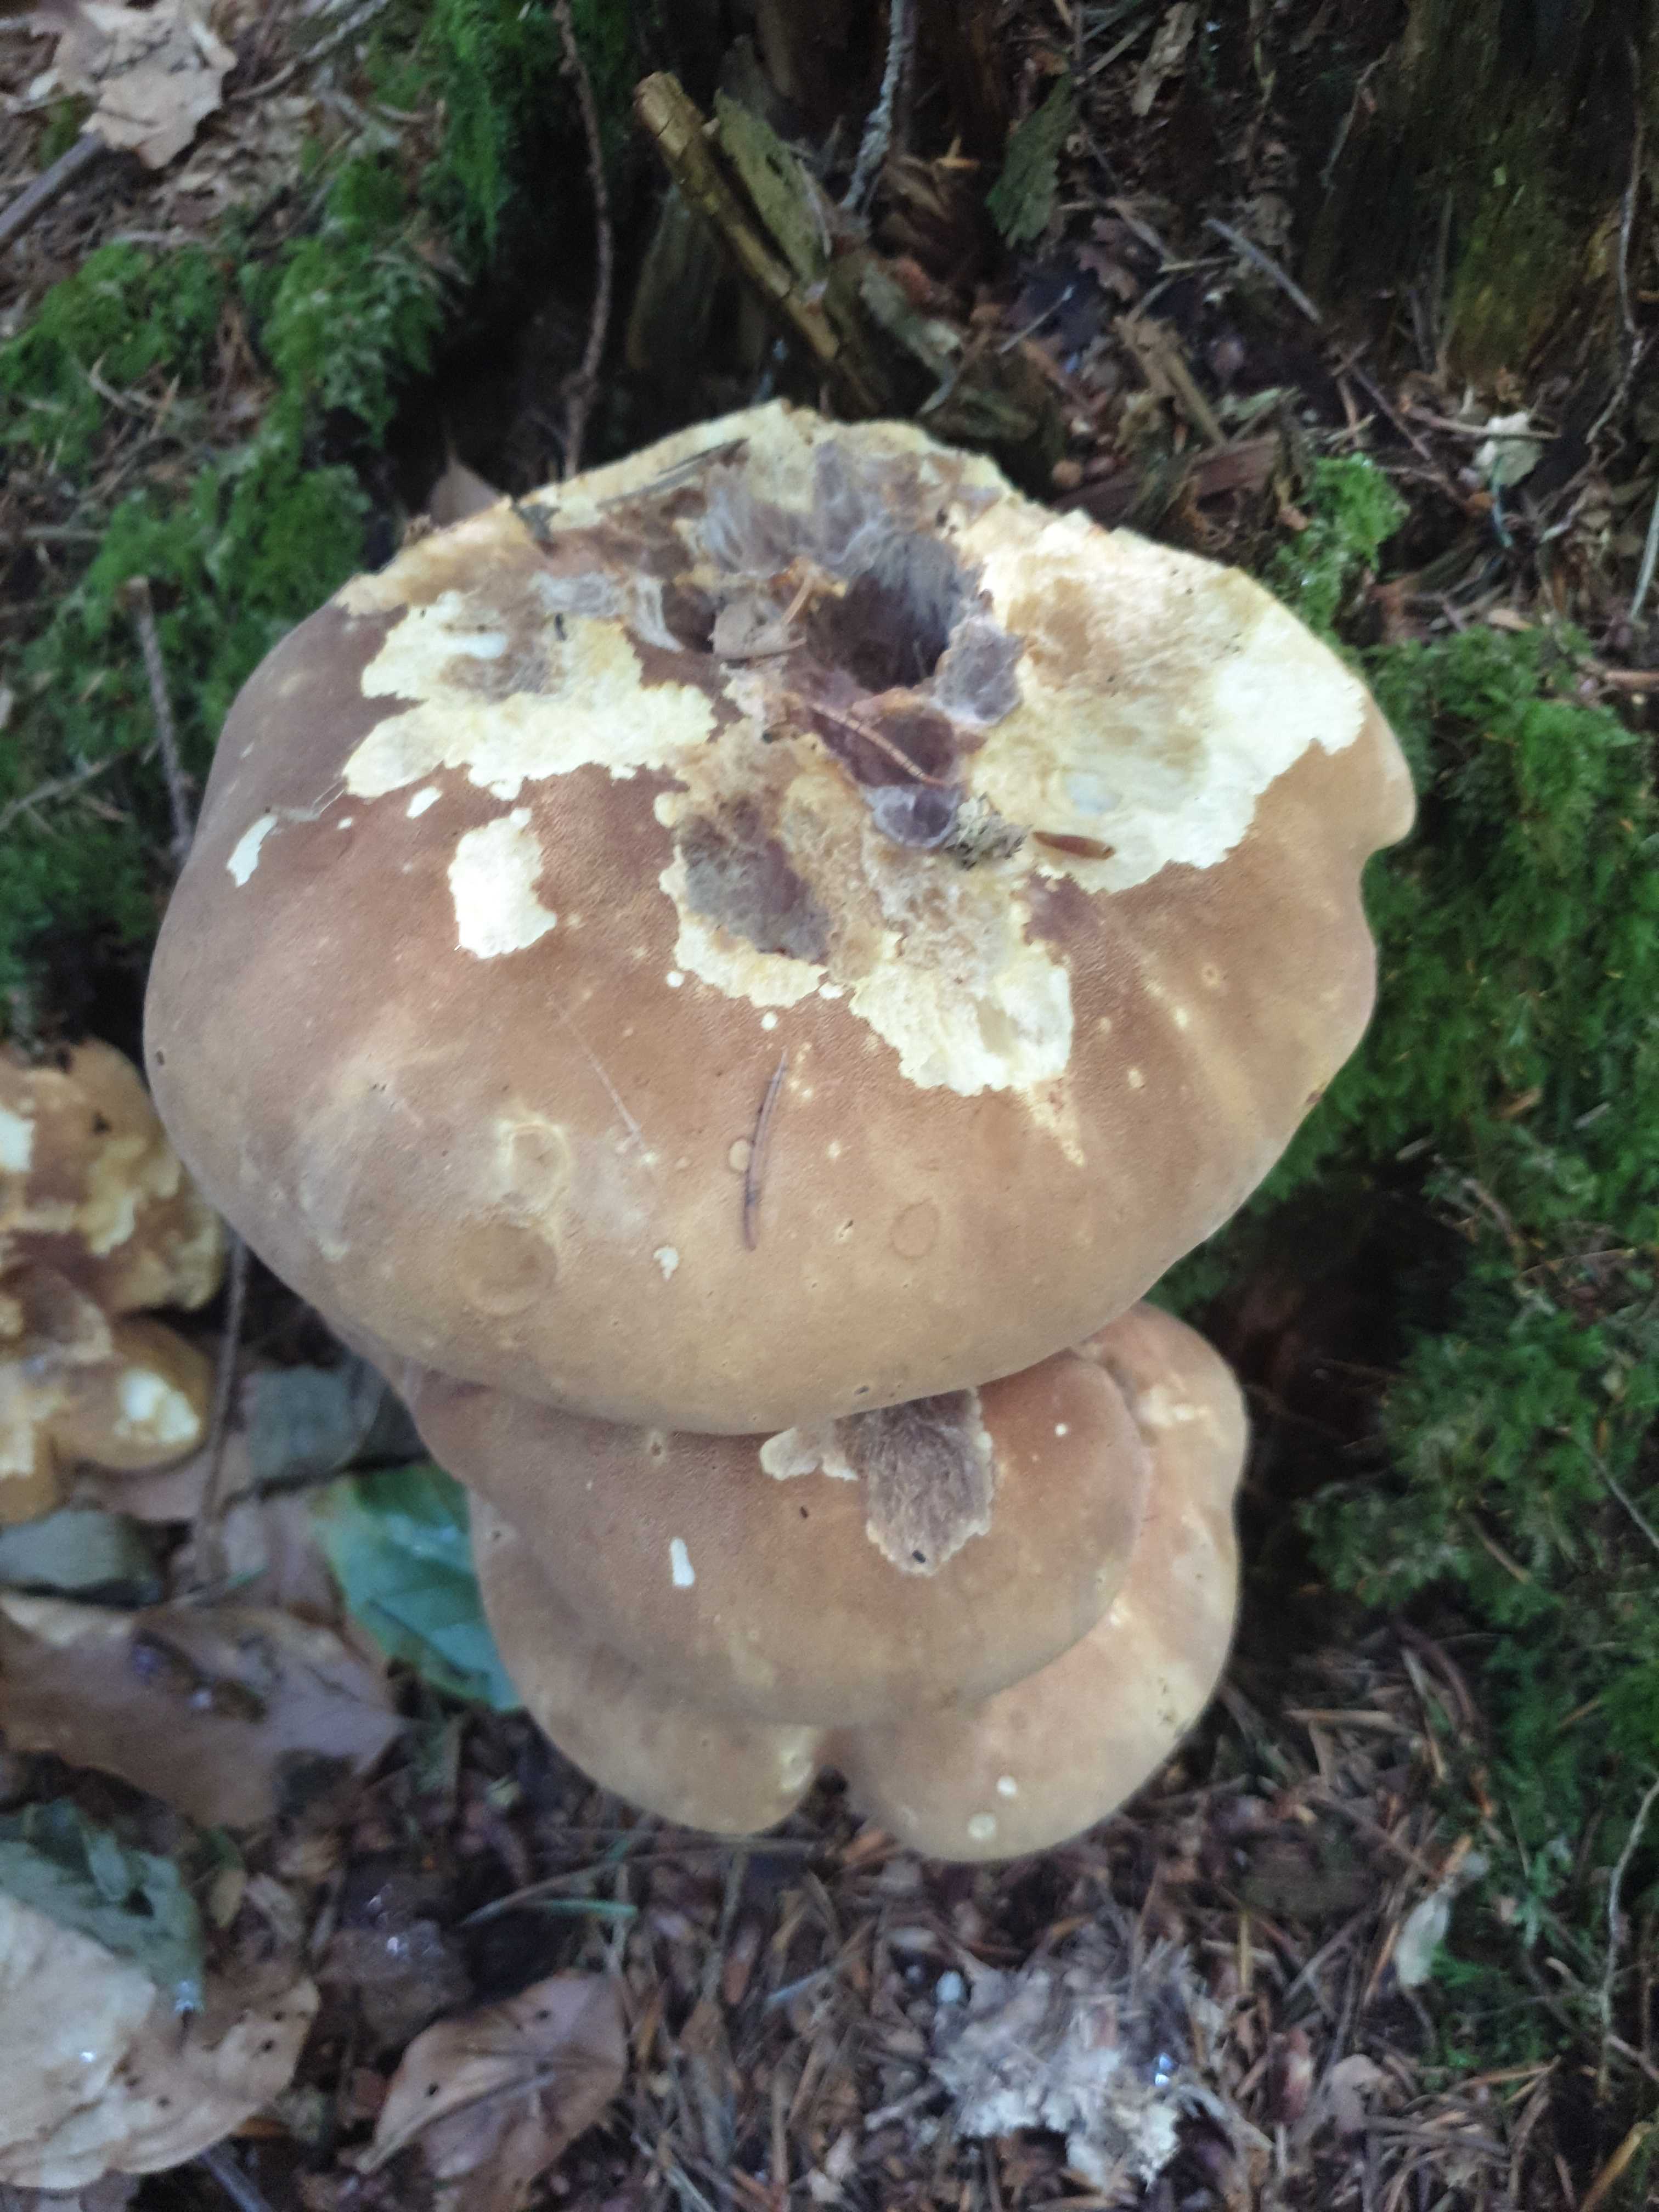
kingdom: Fungi
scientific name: Fungi
